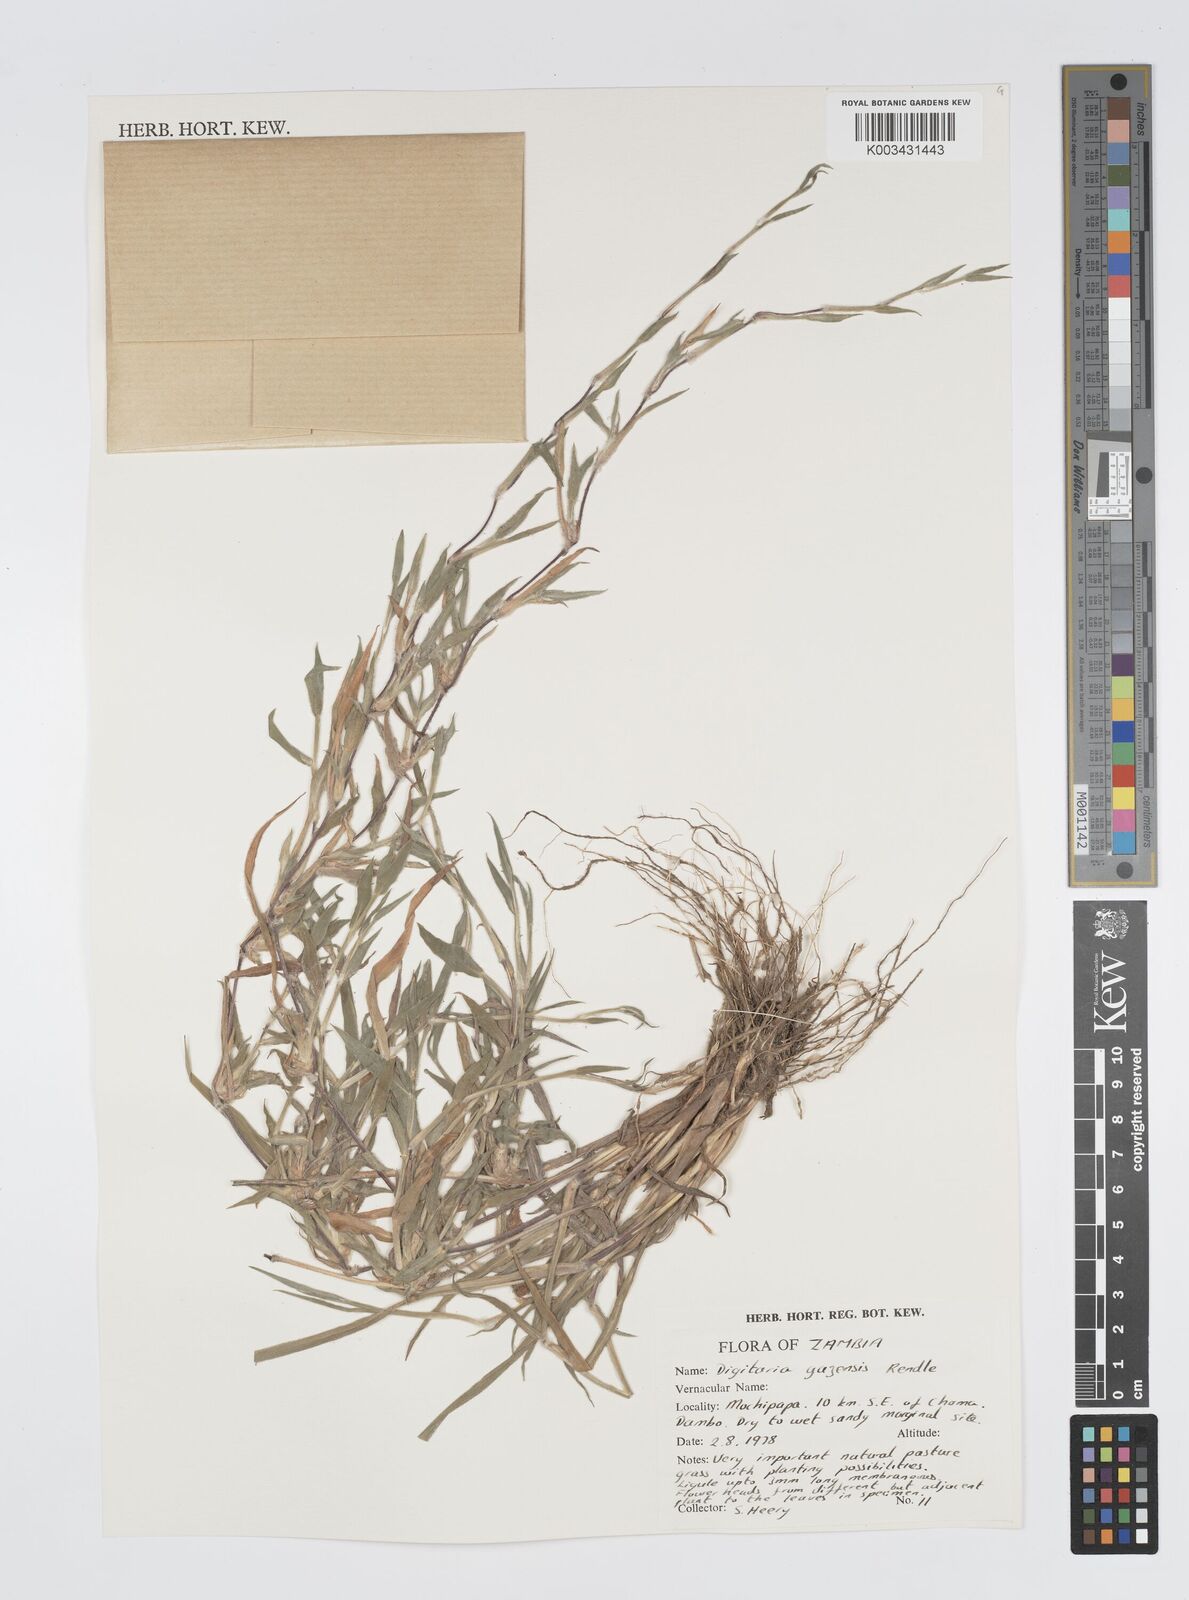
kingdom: Plantae
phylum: Tracheophyta
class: Liliopsida
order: Poales
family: Poaceae
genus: Digitaria
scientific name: Digitaria gazensis
